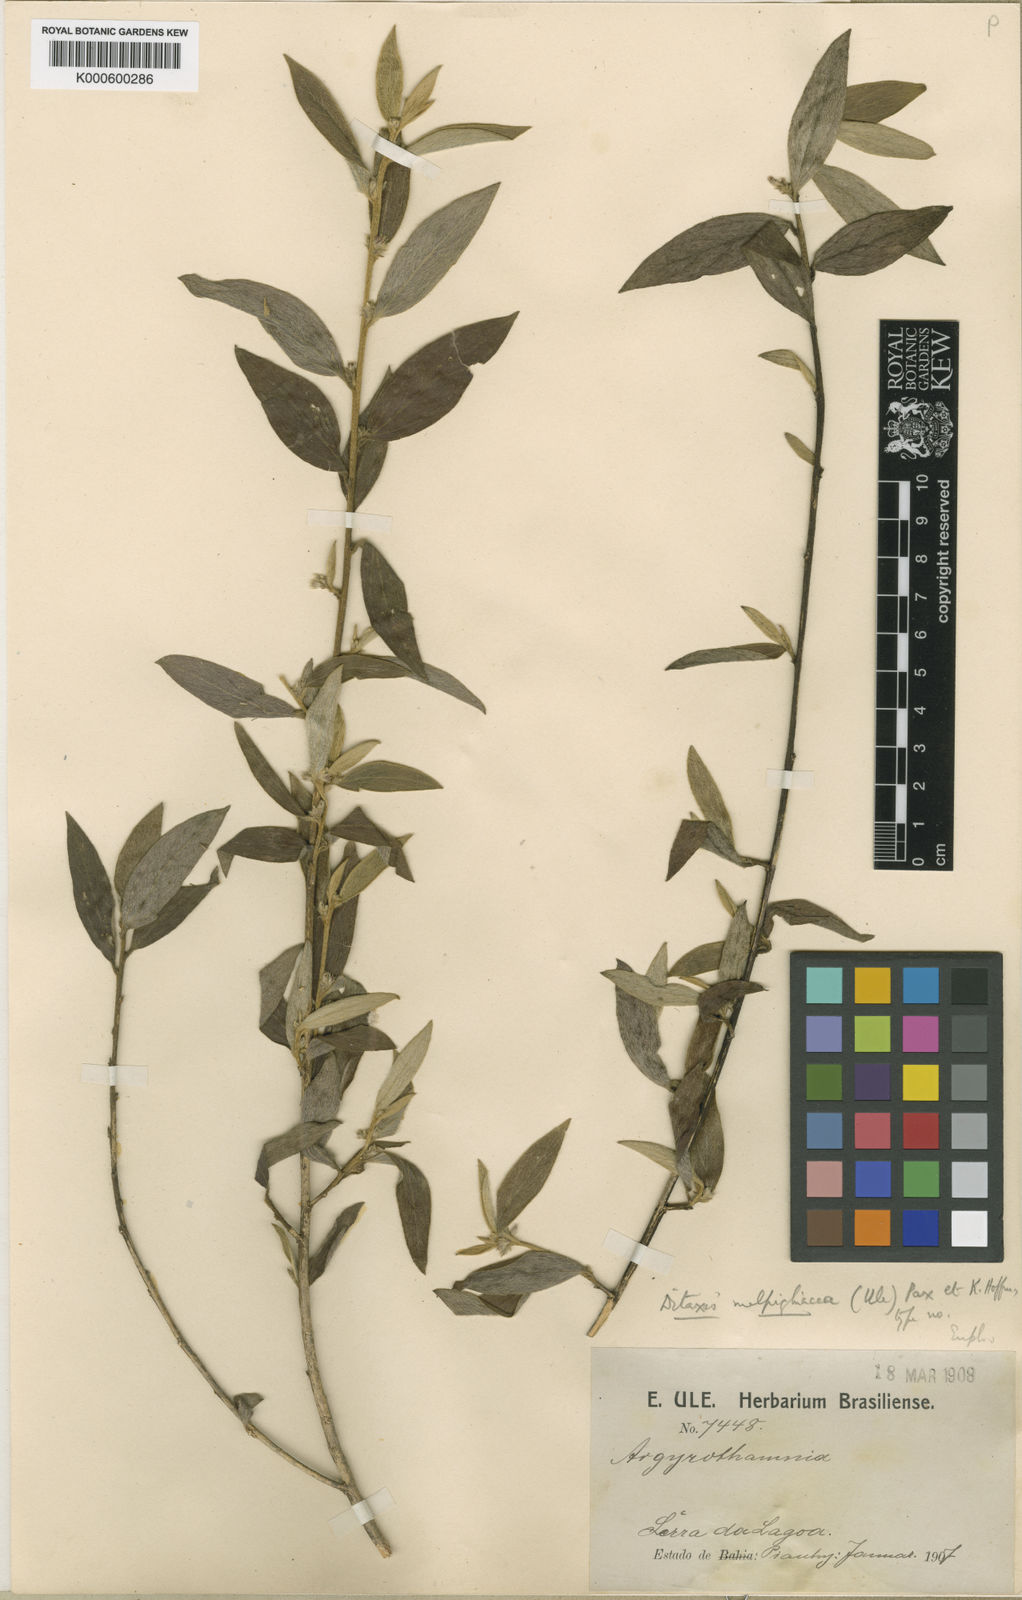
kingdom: Plantae
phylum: Tracheophyta
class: Magnoliopsida
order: Malpighiales
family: Euphorbiaceae
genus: Ditaxis
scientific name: Ditaxis malpighiacea
